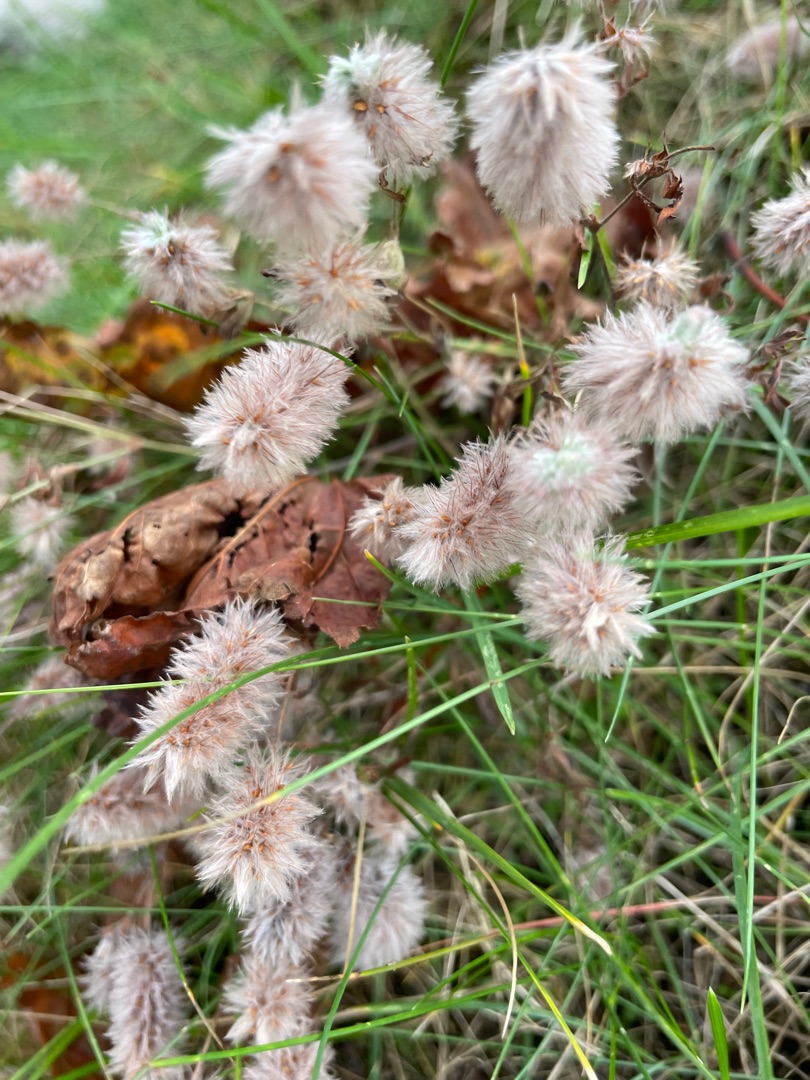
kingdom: Plantae
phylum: Tracheophyta
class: Magnoliopsida
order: Fabales
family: Fabaceae
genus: Trifolium
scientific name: Trifolium arvense
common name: Hare-kløver
